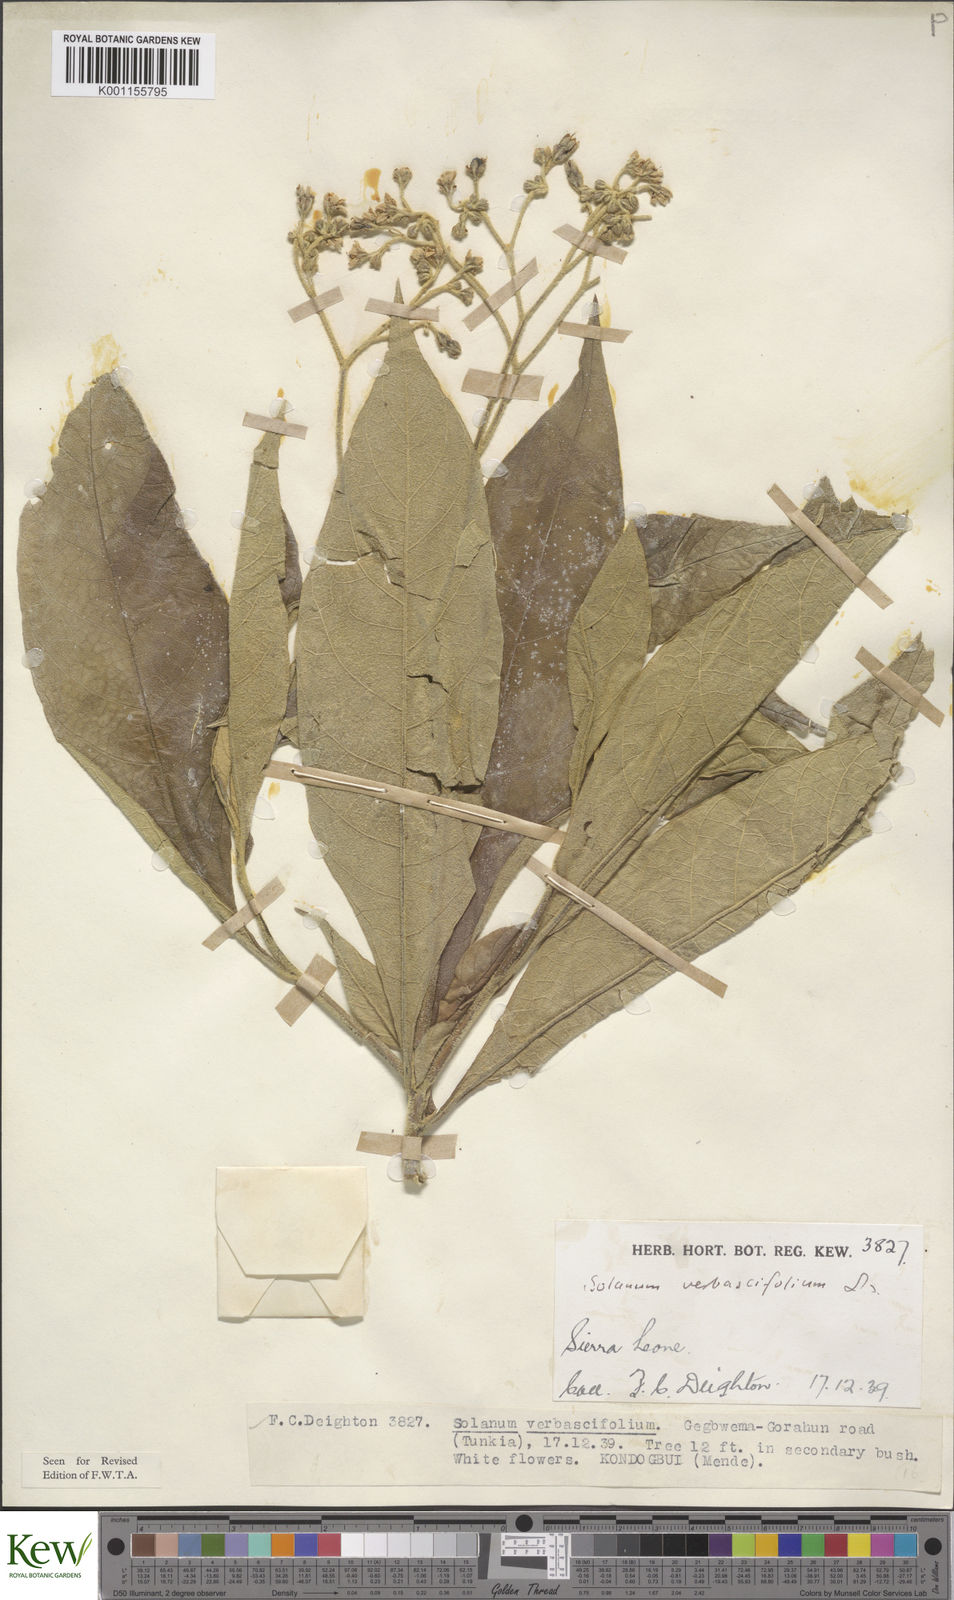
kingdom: Plantae
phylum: Tracheophyta
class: Magnoliopsida
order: Solanales
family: Solanaceae
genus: Solanum
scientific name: Solanum rugosum
